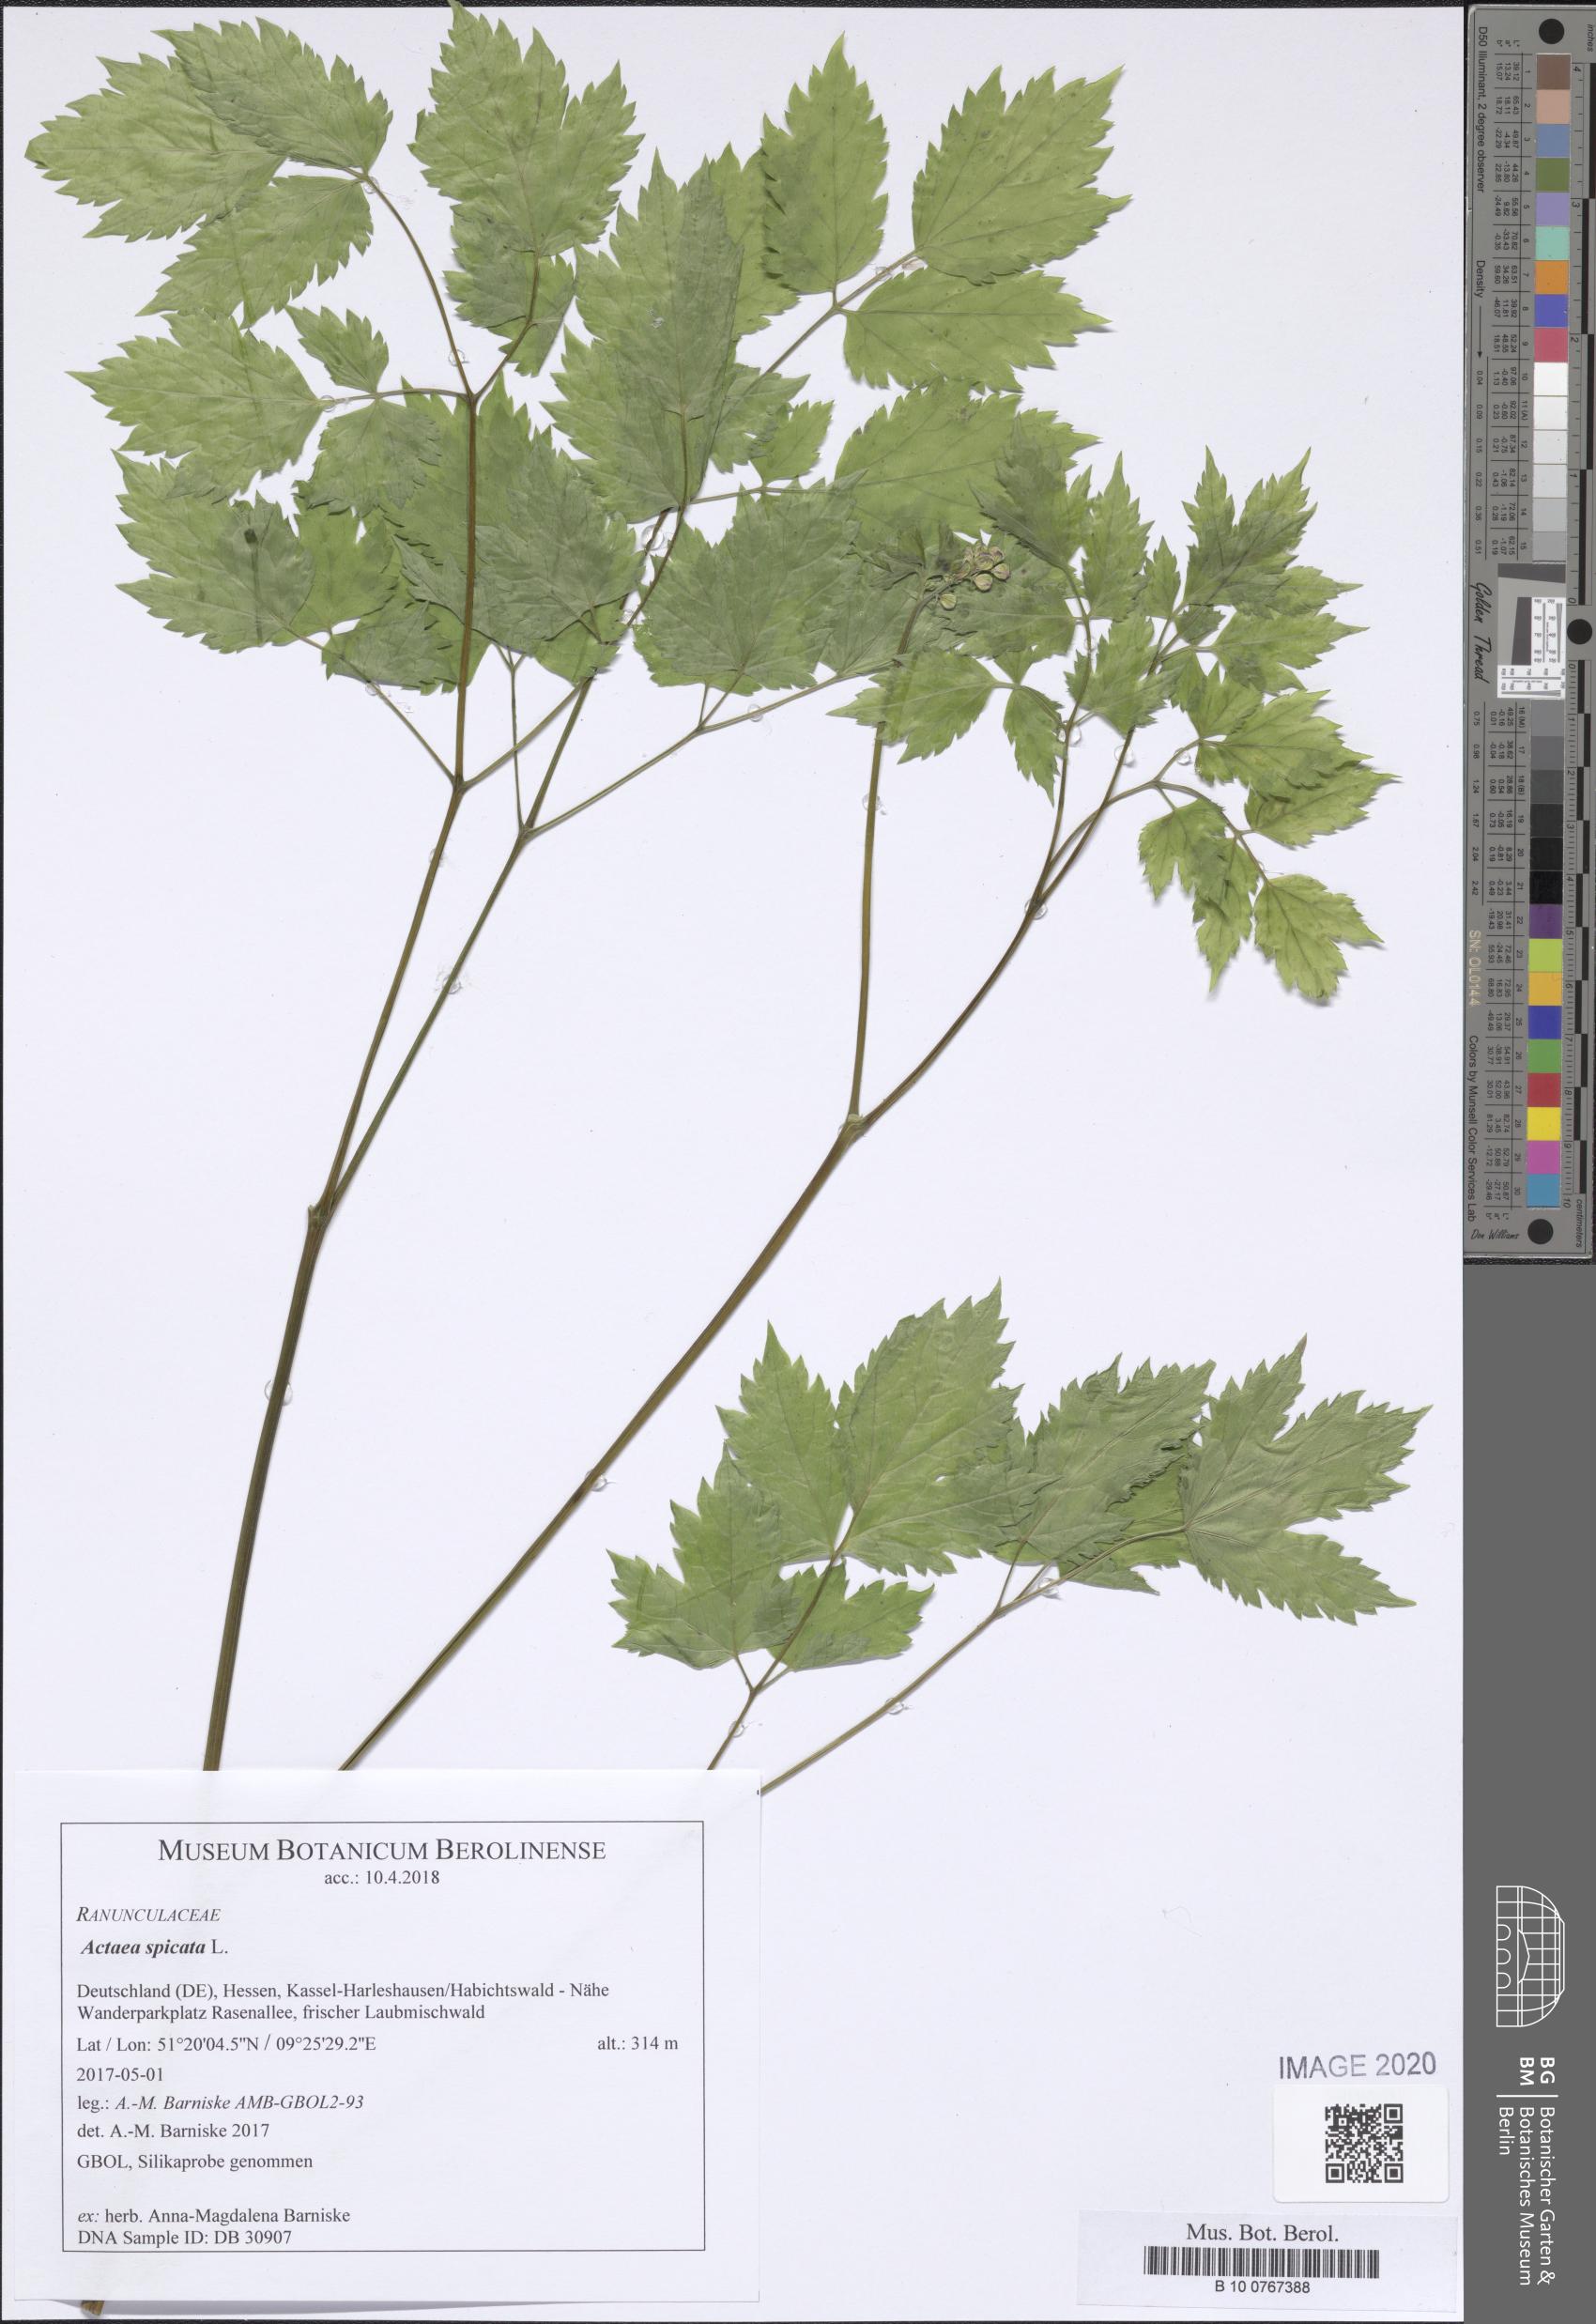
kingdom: Plantae
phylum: Tracheophyta
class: Magnoliopsida
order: Ranunculales
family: Ranunculaceae
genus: Actaea
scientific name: Actaea spicata
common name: Baneberry
